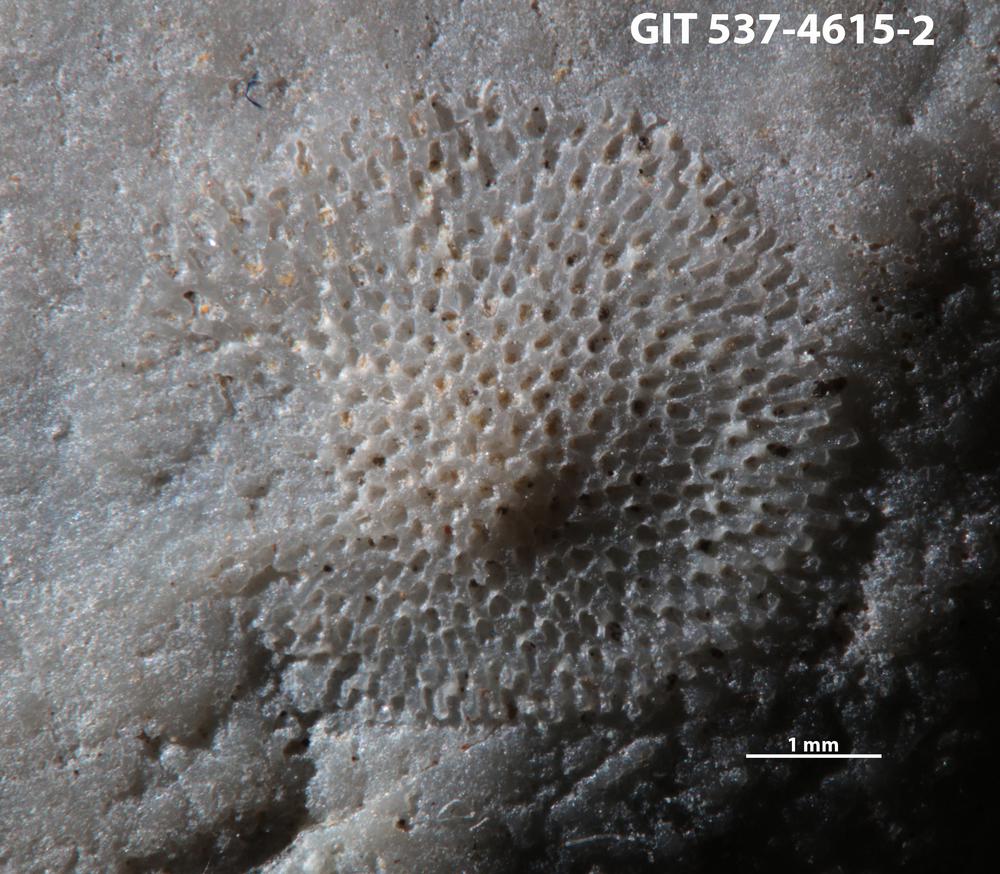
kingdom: Animalia
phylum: Bryozoa
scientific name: Bryozoa
